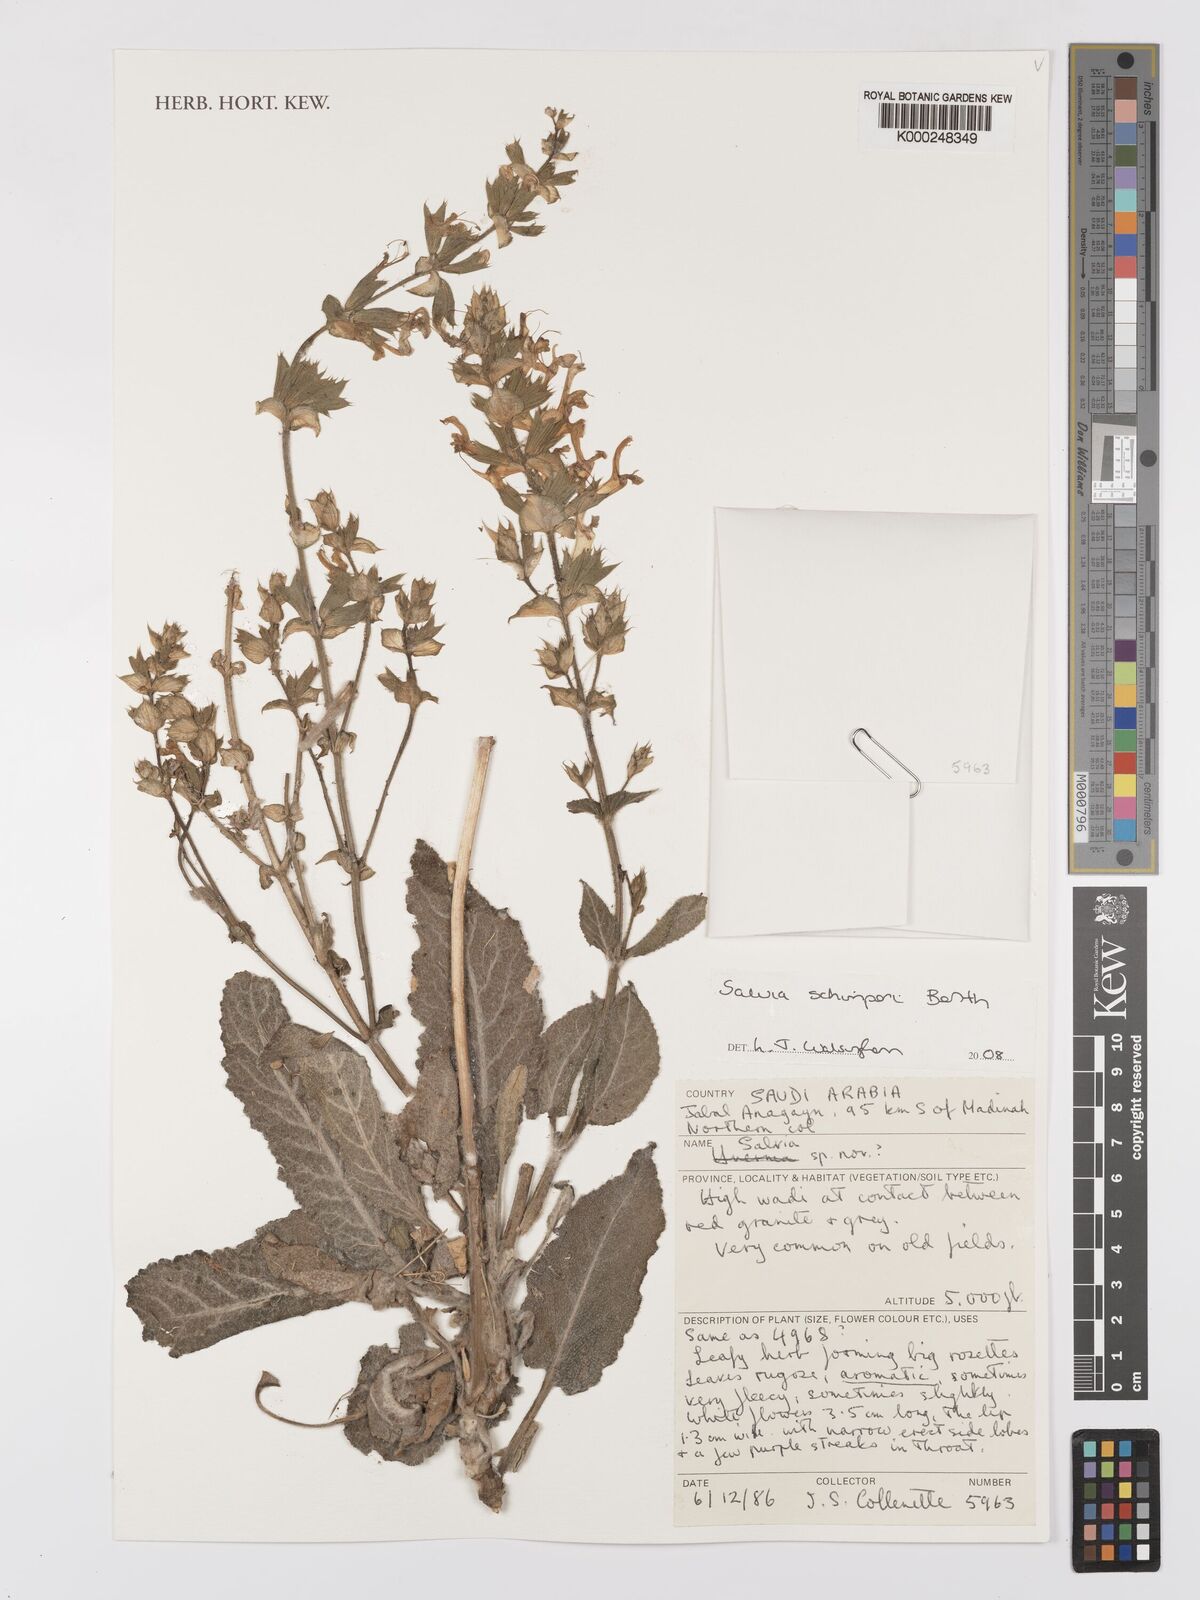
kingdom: Plantae
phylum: Tracheophyta
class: Magnoliopsida
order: Lamiales
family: Lamiaceae
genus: Salvia
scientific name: Salvia schimperi
